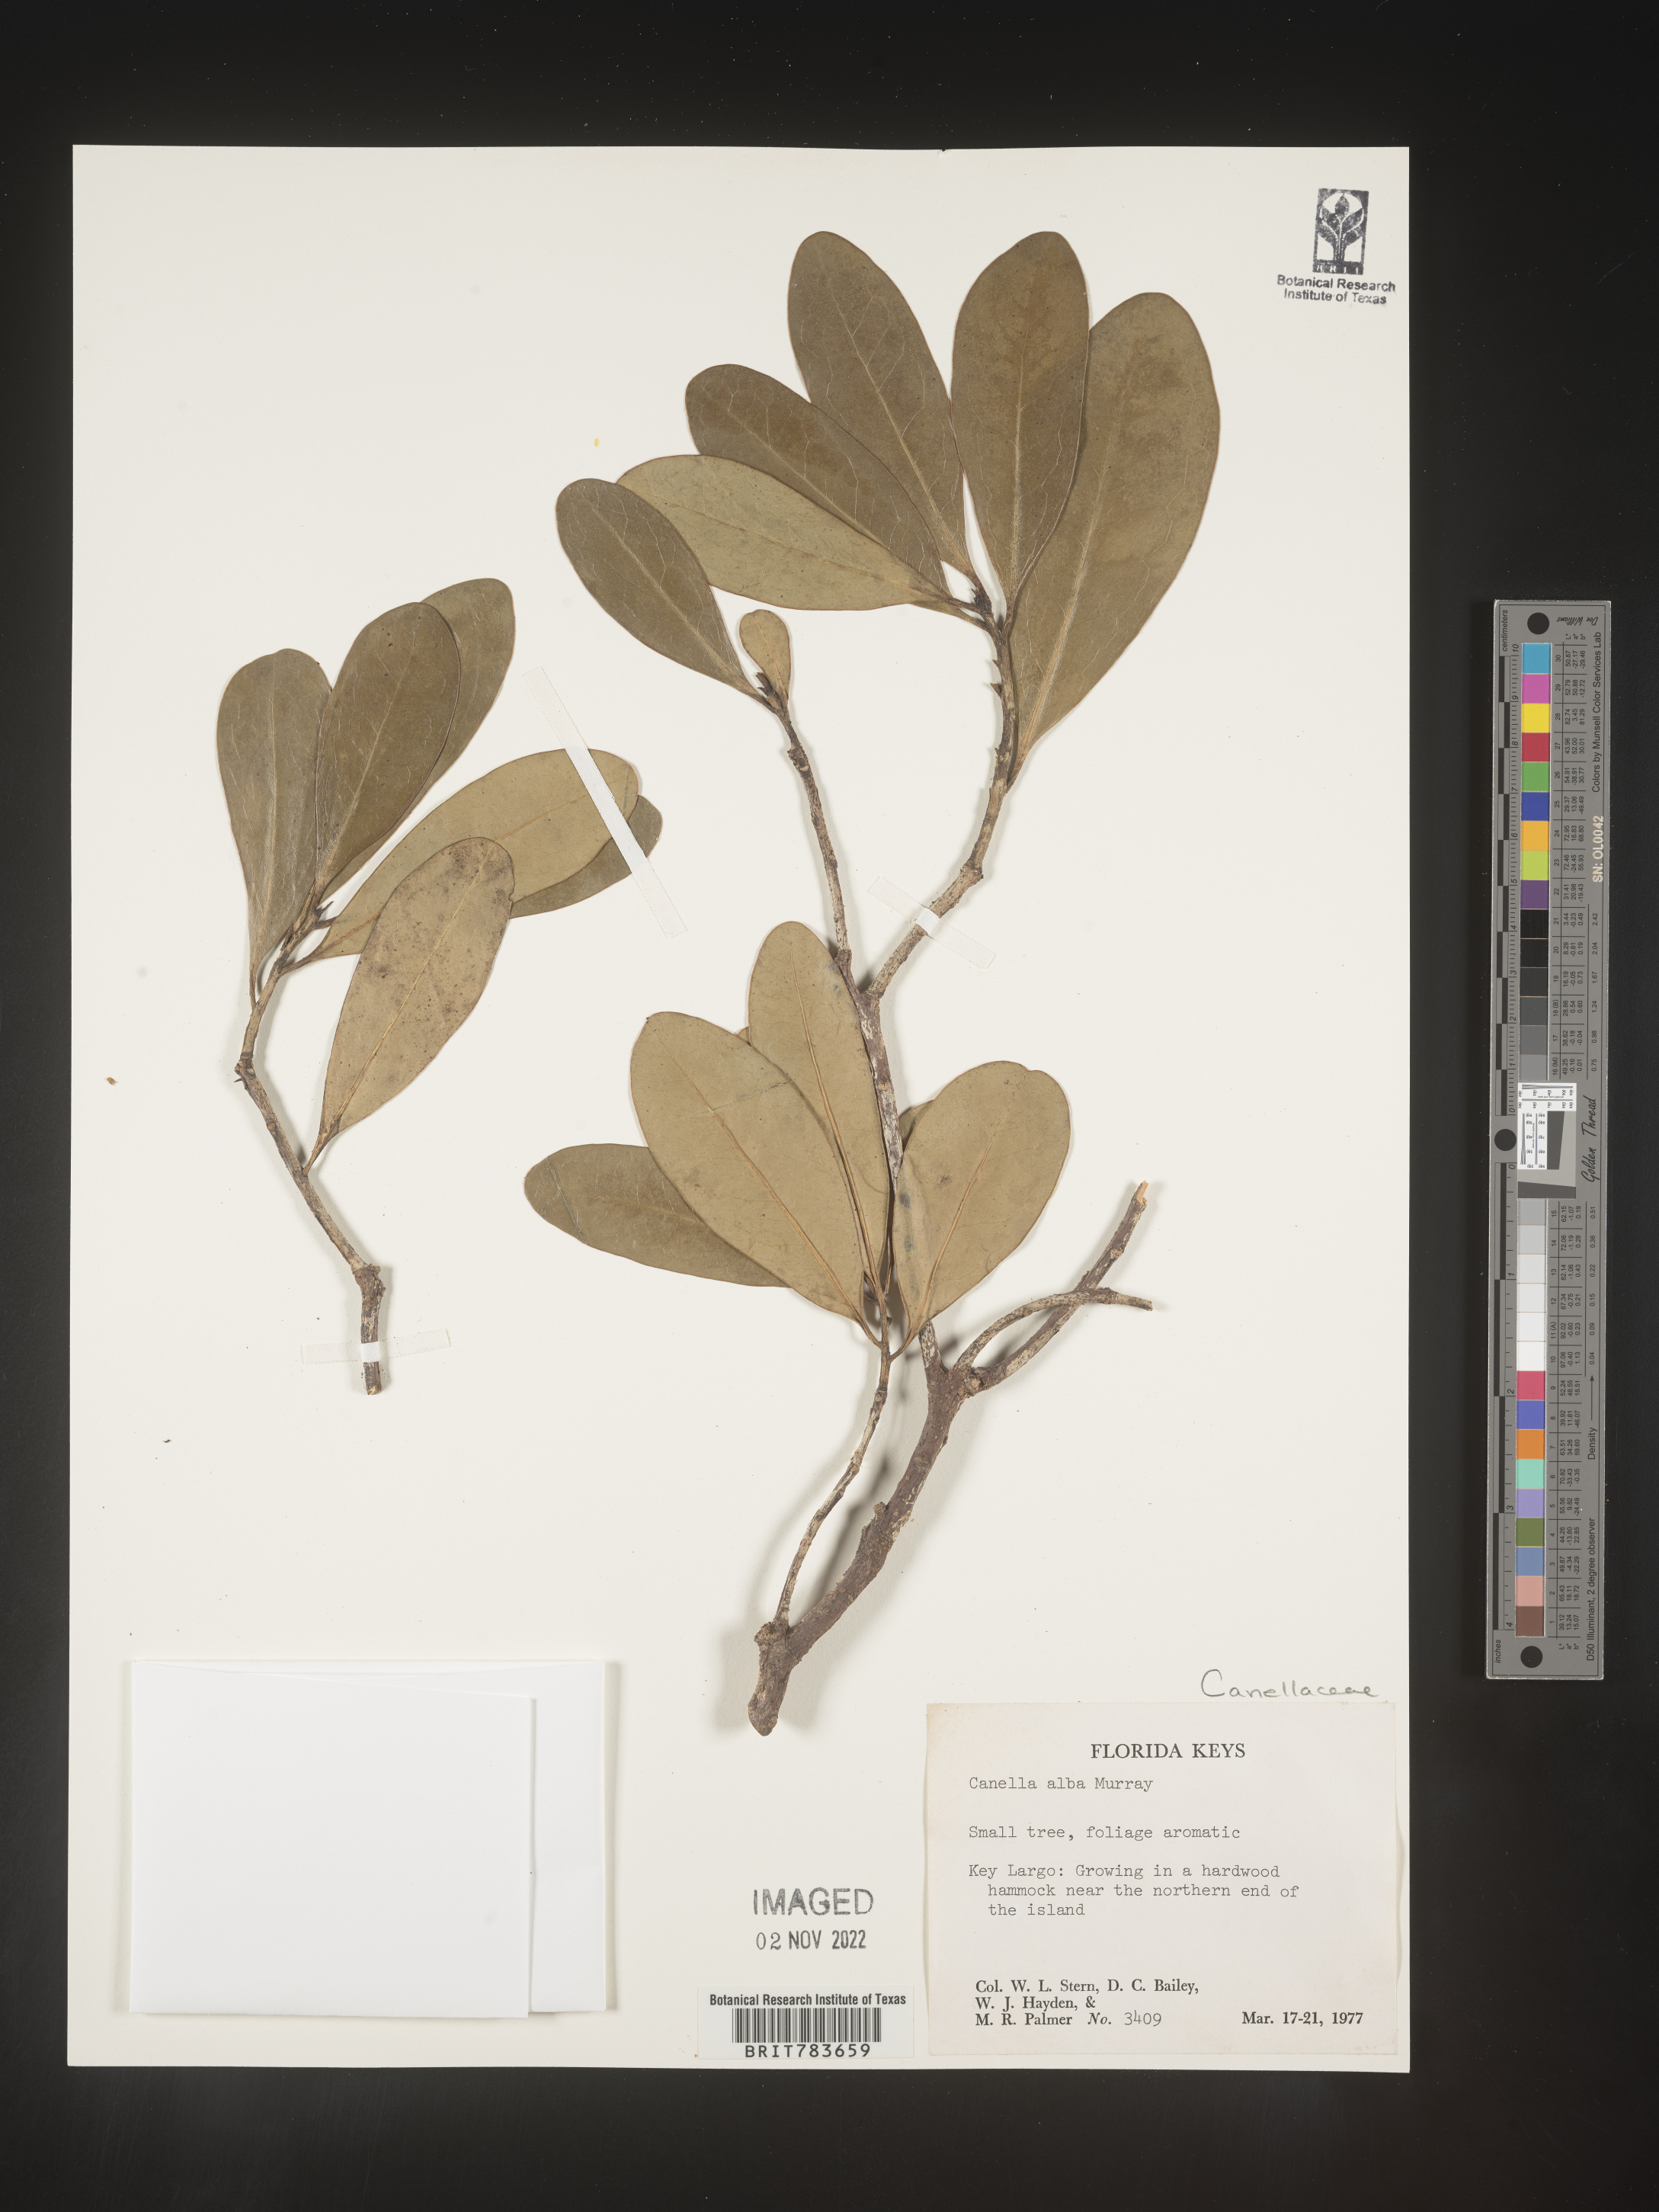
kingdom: Plantae
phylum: Tracheophyta
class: Magnoliopsida
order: Canellales
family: Canellaceae
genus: Canella
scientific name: Canella
